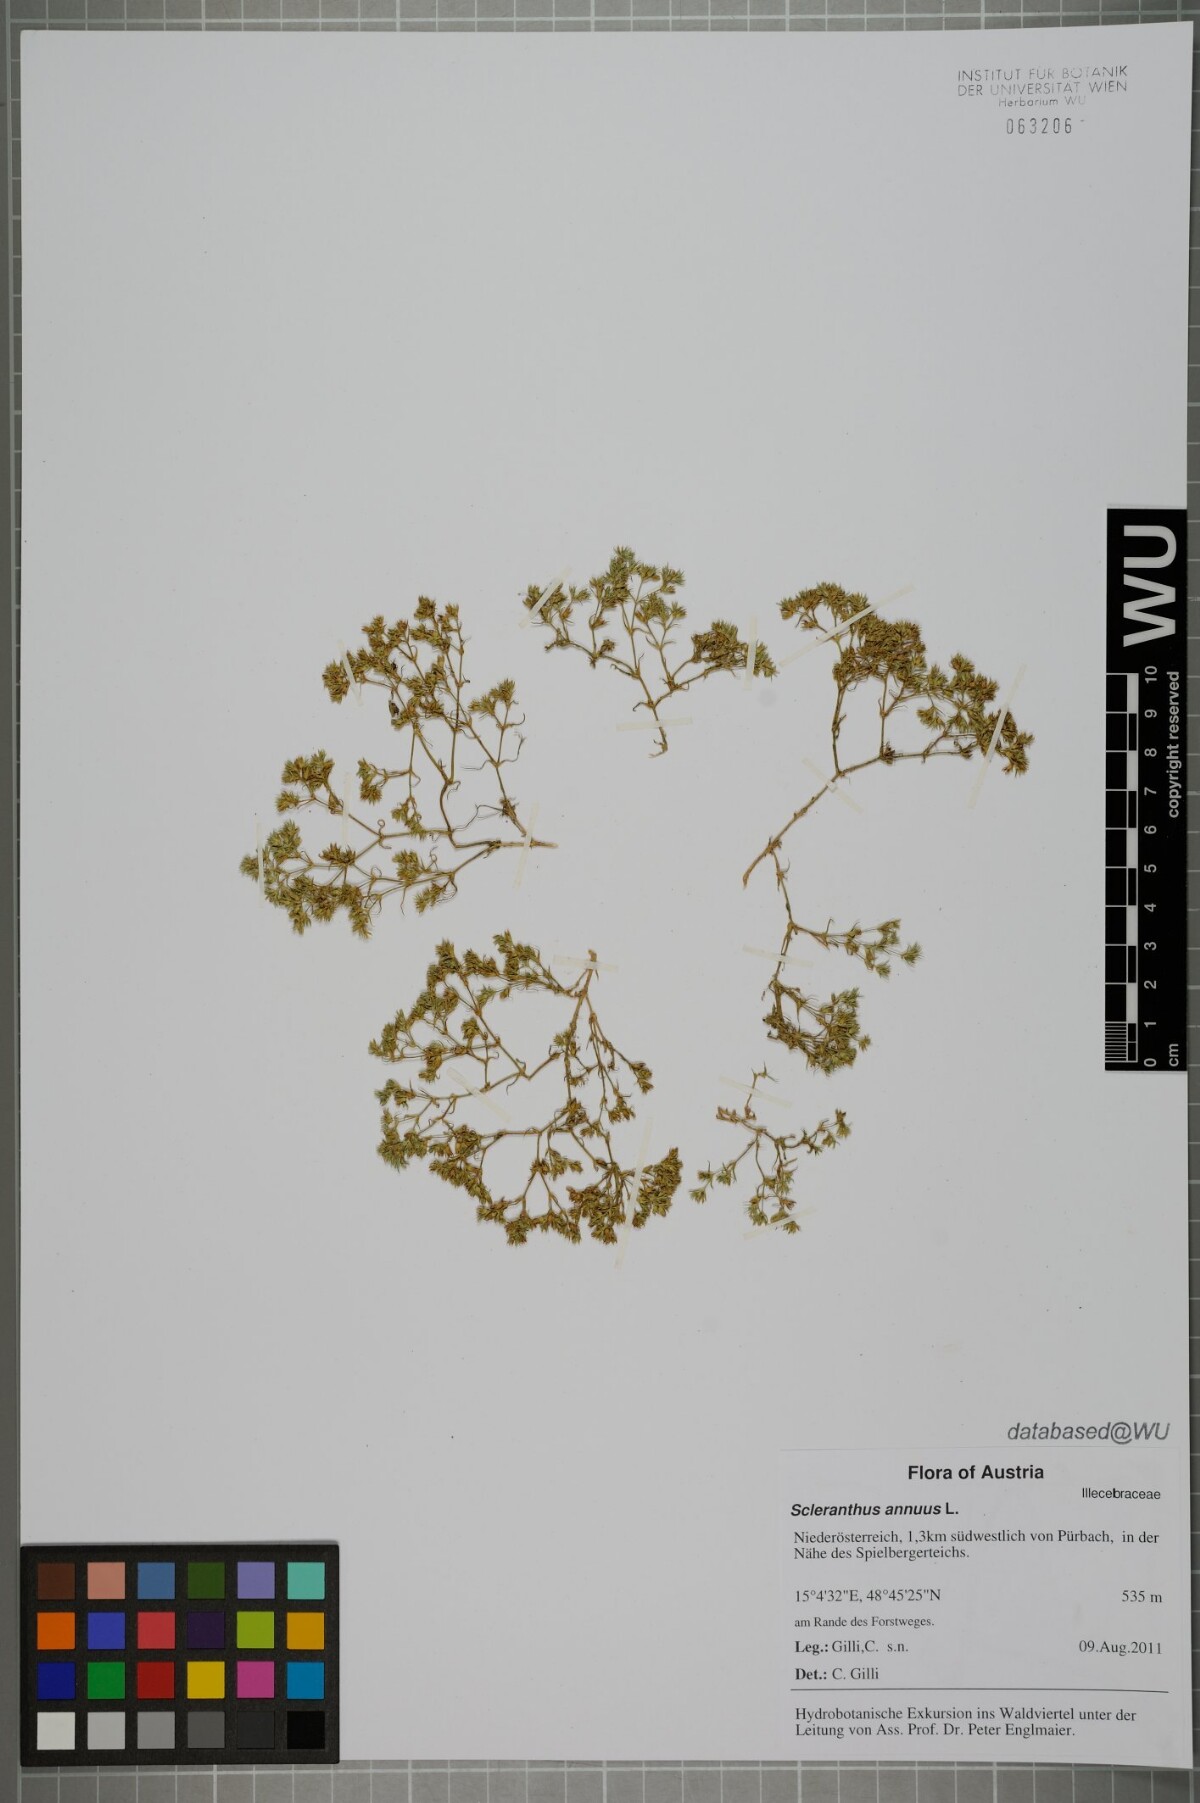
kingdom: Plantae
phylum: Tracheophyta
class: Magnoliopsida
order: Caryophyllales
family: Caryophyllaceae
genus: Scleranthus
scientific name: Scleranthus annuus
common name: Annual knawel
